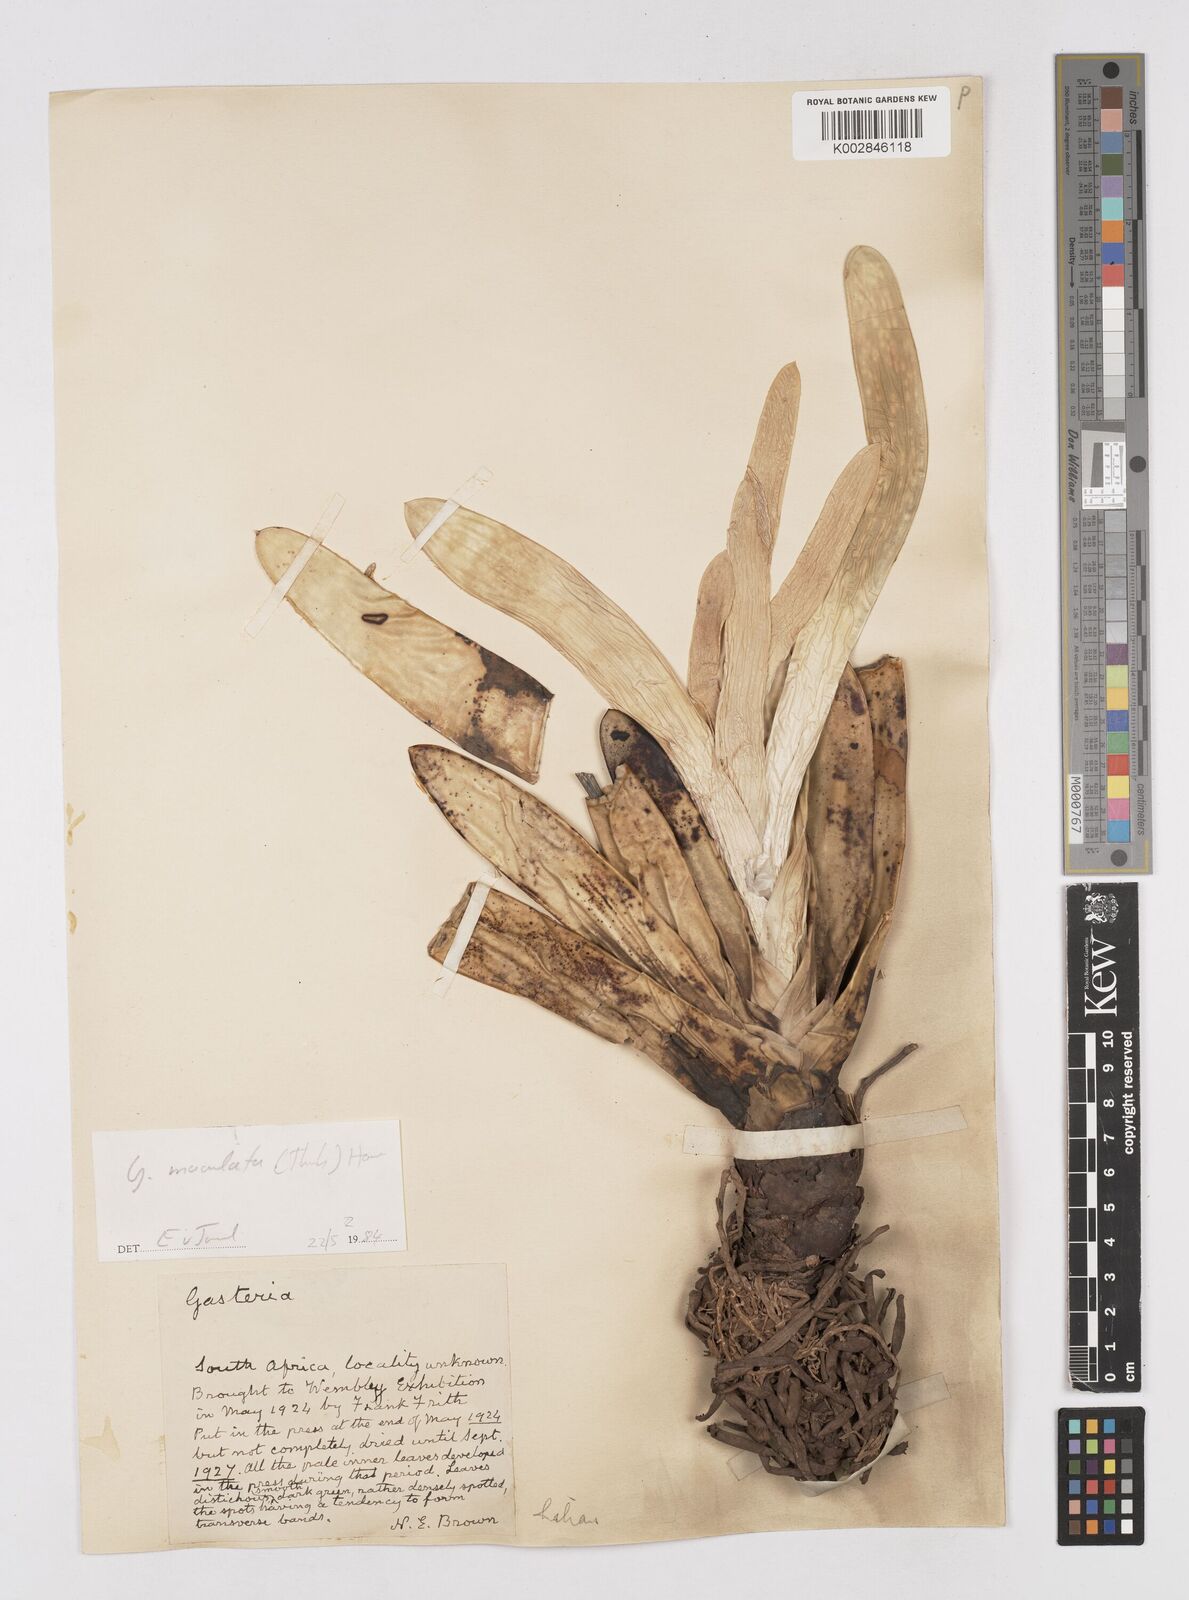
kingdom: Plantae
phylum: Tracheophyta
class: Liliopsida
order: Asparagales
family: Asphodelaceae
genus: Gasteria
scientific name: Gasteria
